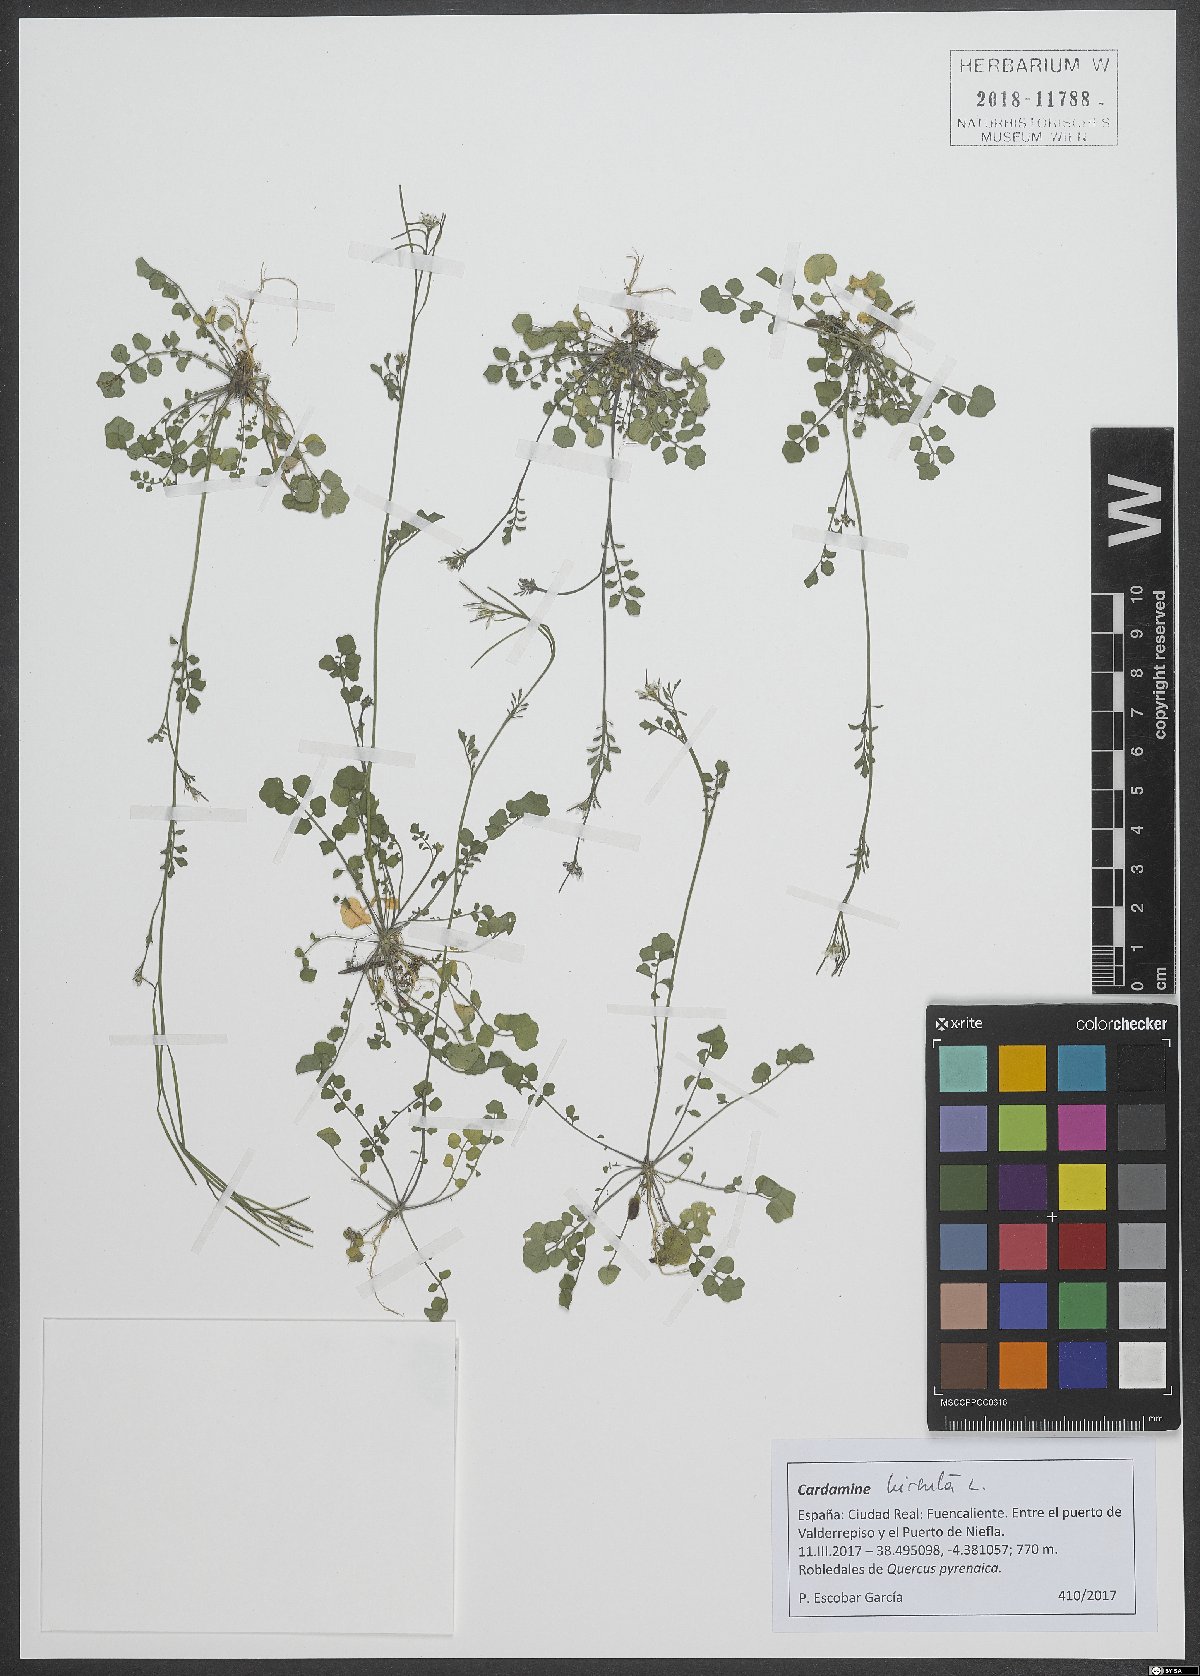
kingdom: Plantae
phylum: Tracheophyta
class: Magnoliopsida
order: Brassicales
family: Brassicaceae
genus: Cardamine
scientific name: Cardamine hirsuta
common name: Hairy bittercress
